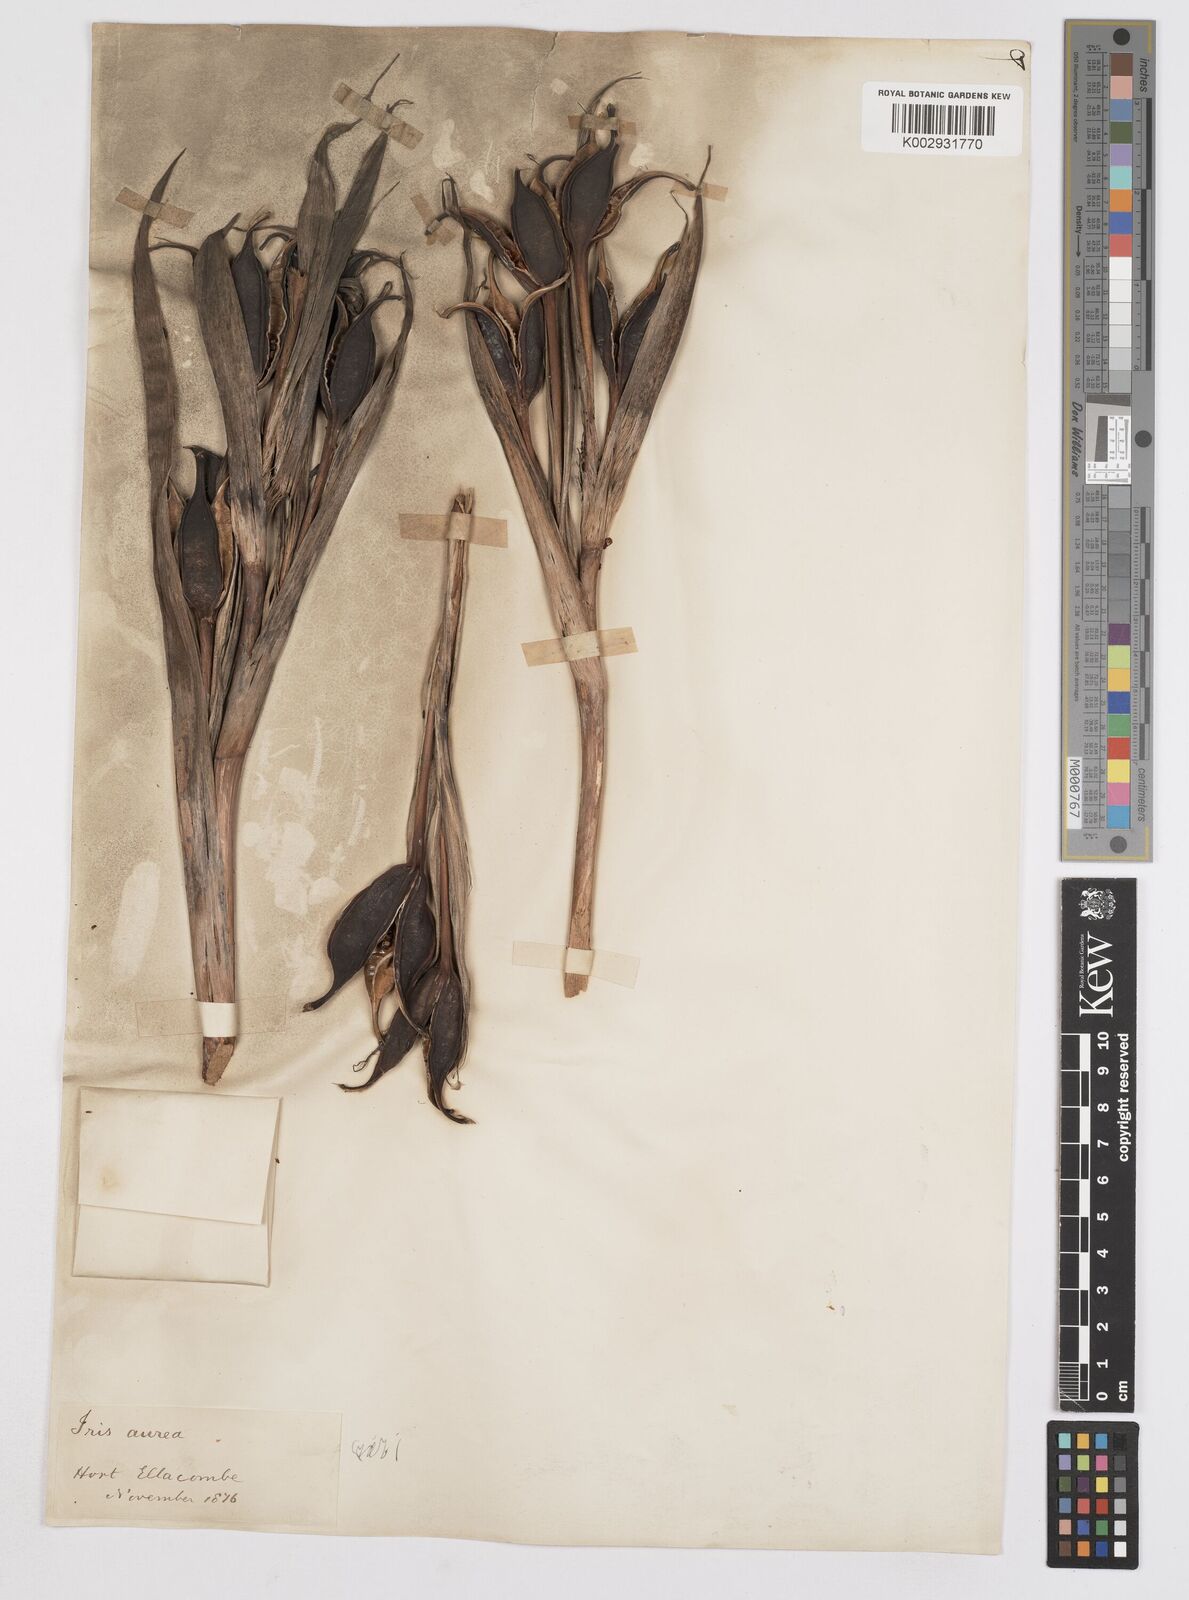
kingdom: Plantae
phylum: Tracheophyta
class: Liliopsida
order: Asparagales
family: Iridaceae
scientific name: Iridaceae
